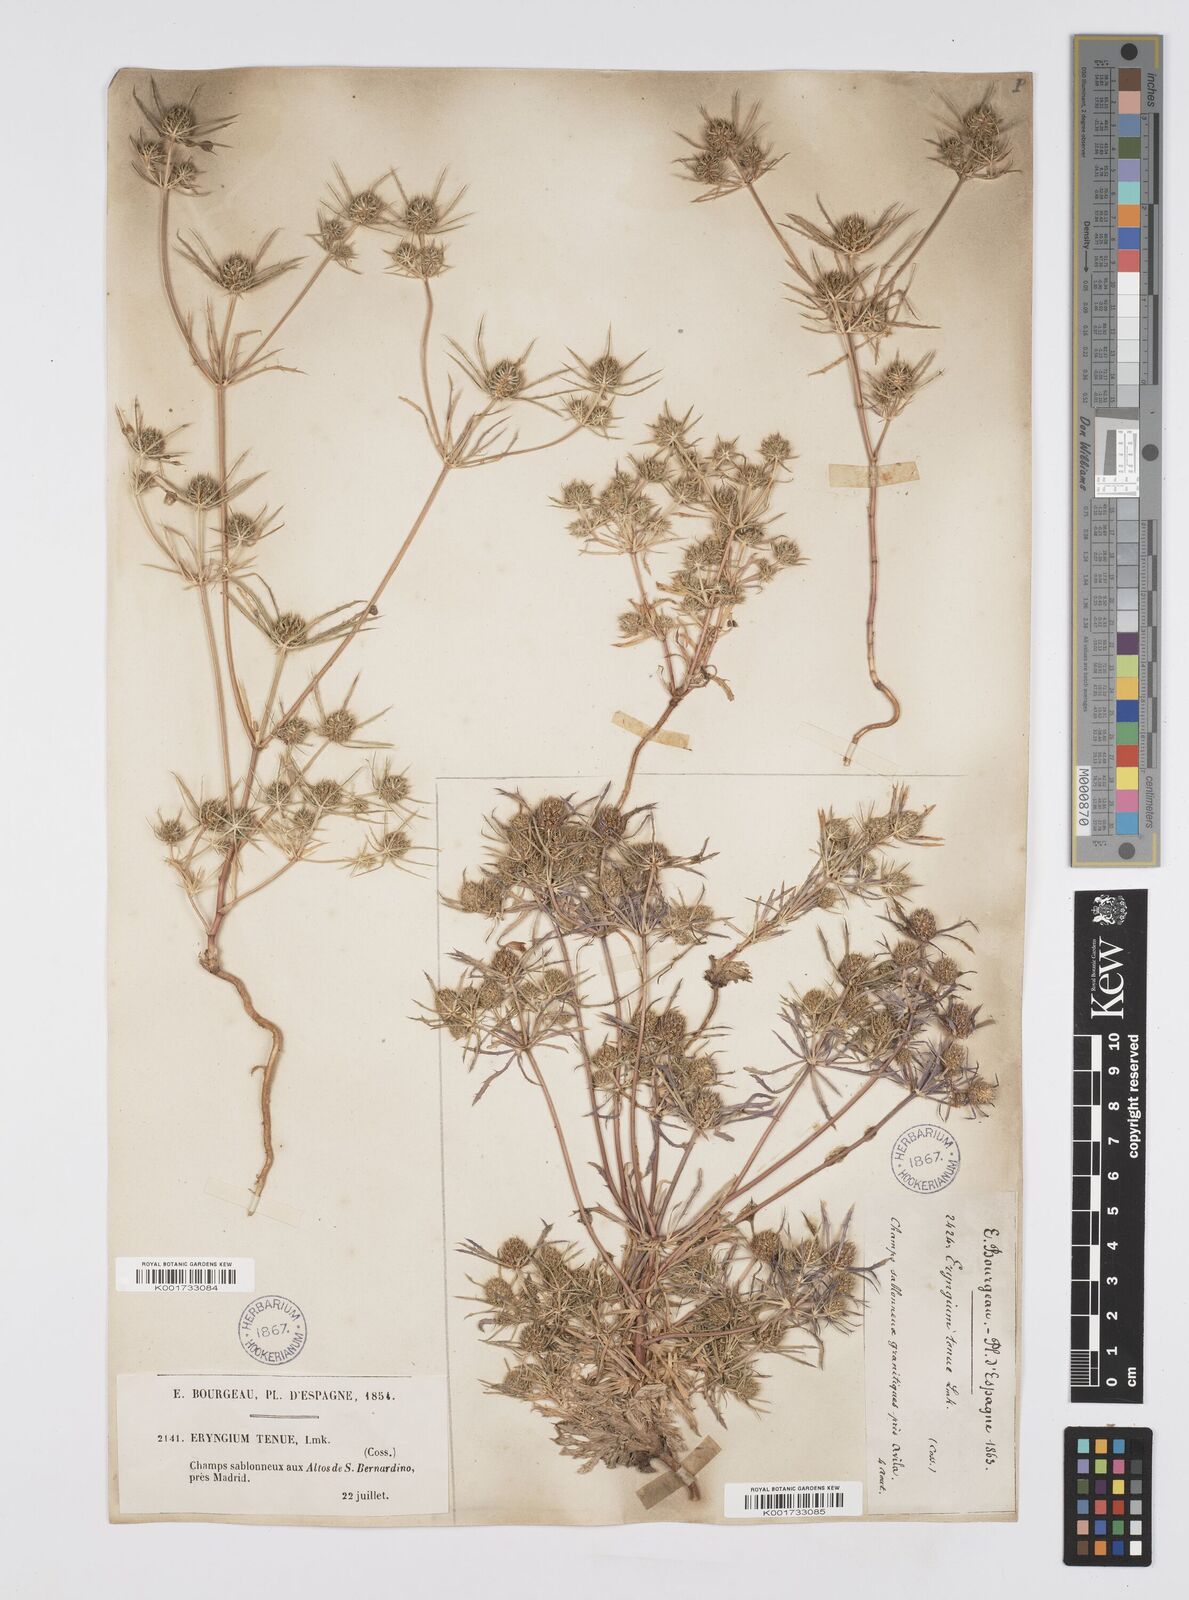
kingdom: Plantae
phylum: Tracheophyta
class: Magnoliopsida
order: Apiales
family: Apiaceae
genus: Eryngium
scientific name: Eryngium
